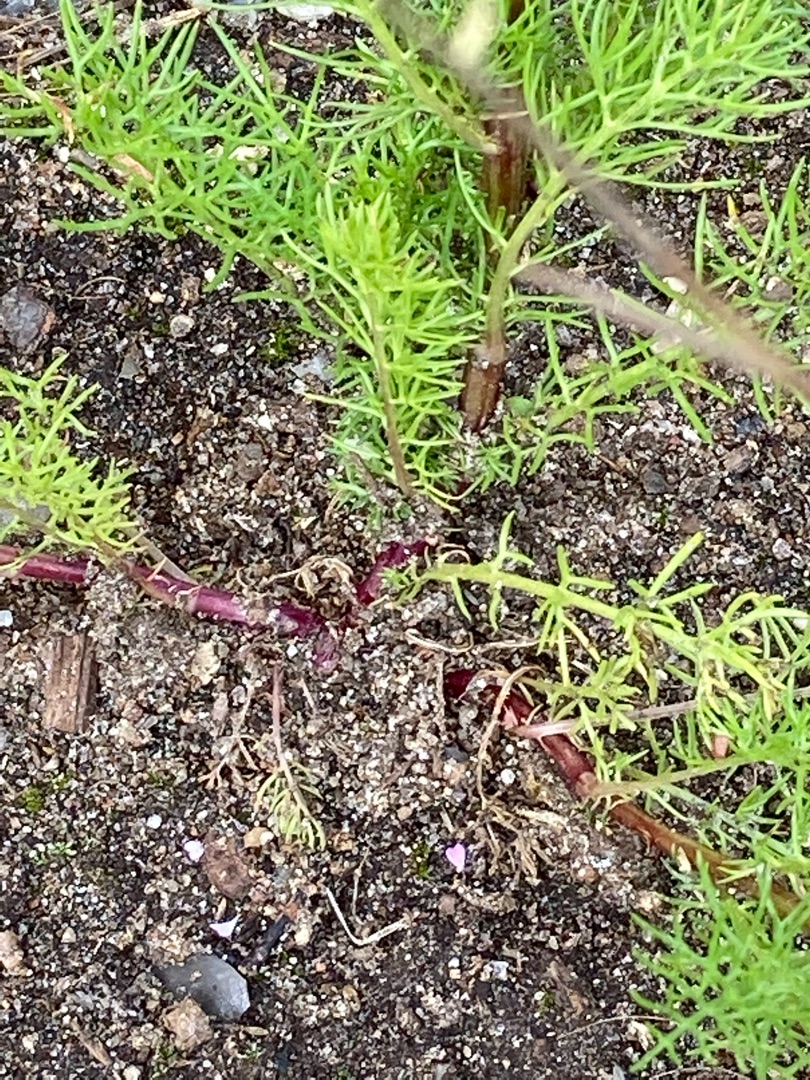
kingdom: Plantae
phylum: Tracheophyta
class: Magnoliopsida
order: Asterales
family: Asteraceae
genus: Tripleurospermum
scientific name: Tripleurospermum inodorum
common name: Lugtløs kamille
